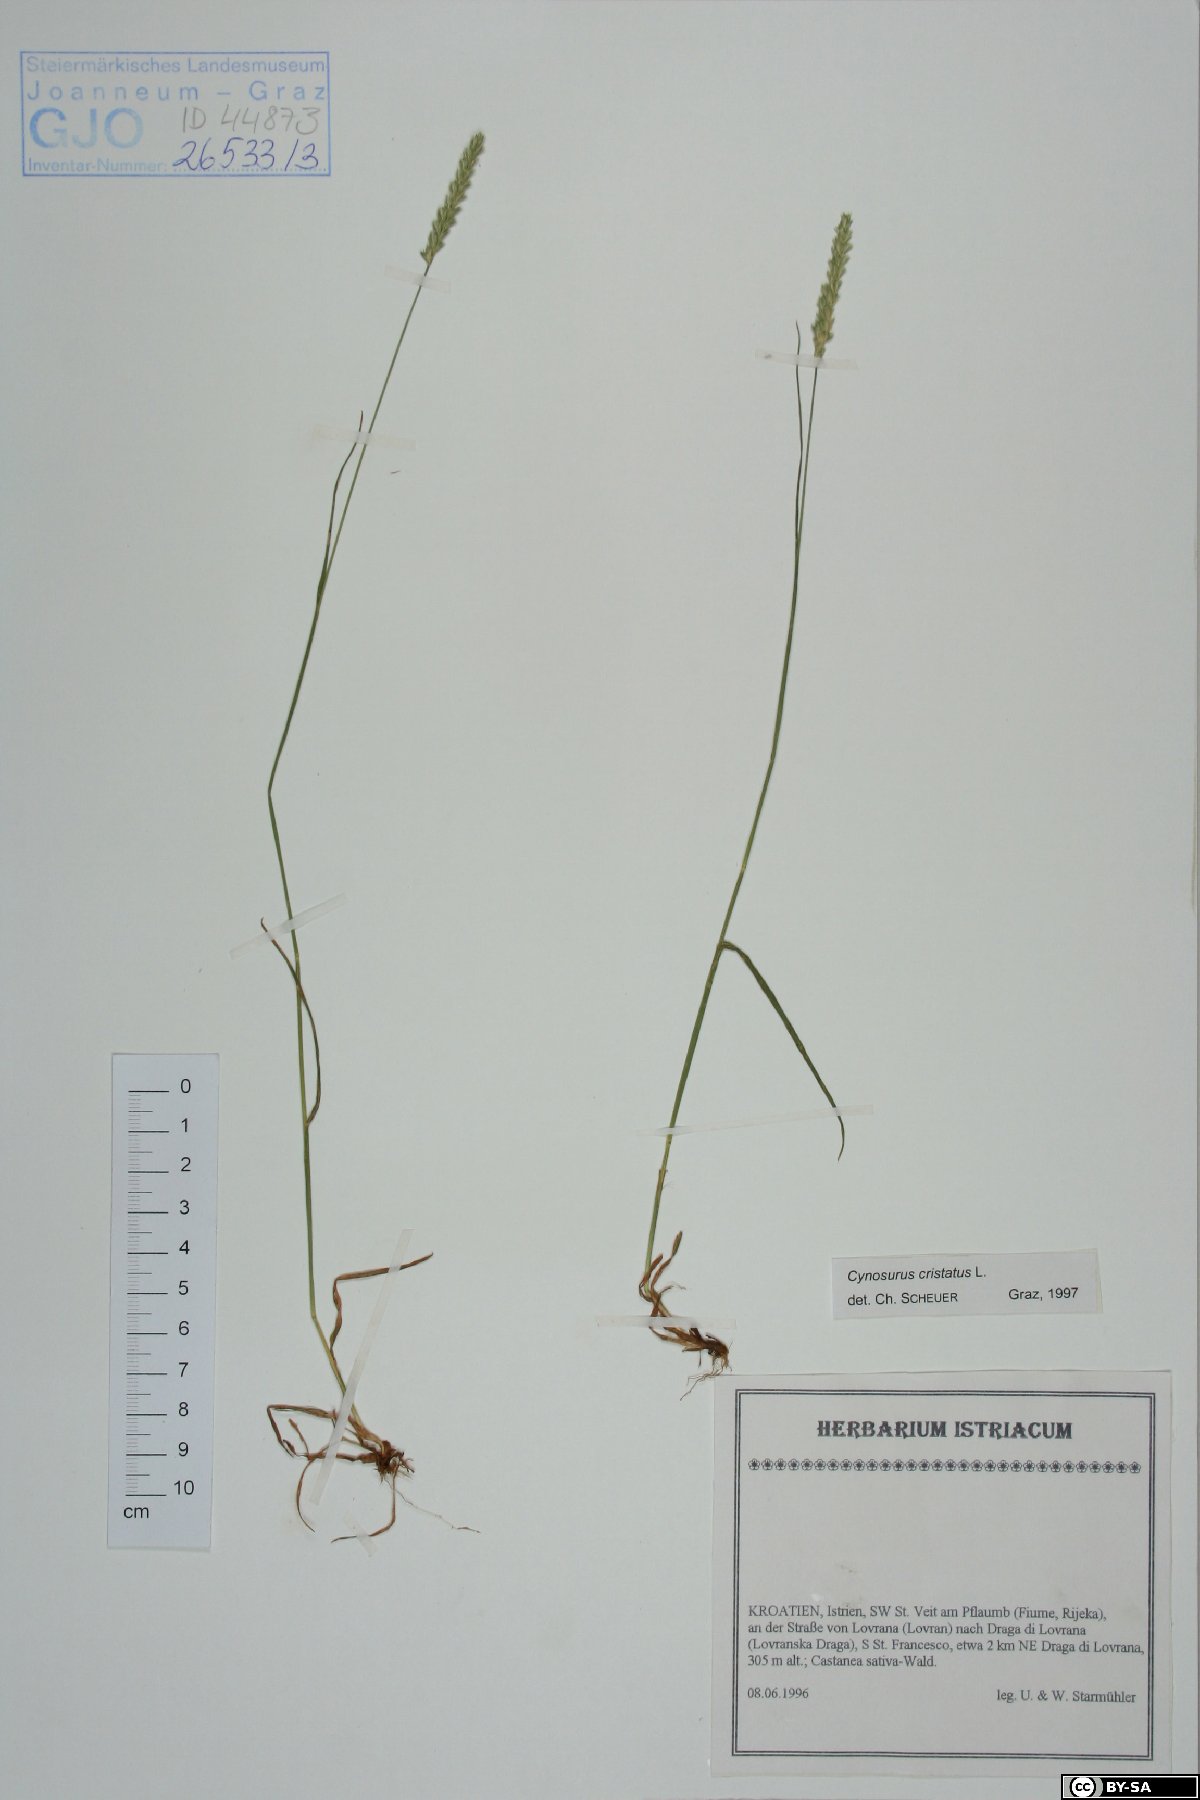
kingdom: Plantae
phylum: Tracheophyta
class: Liliopsida
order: Poales
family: Poaceae
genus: Cynosurus
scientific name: Cynosurus cristatus
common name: Crested dog's-tail
